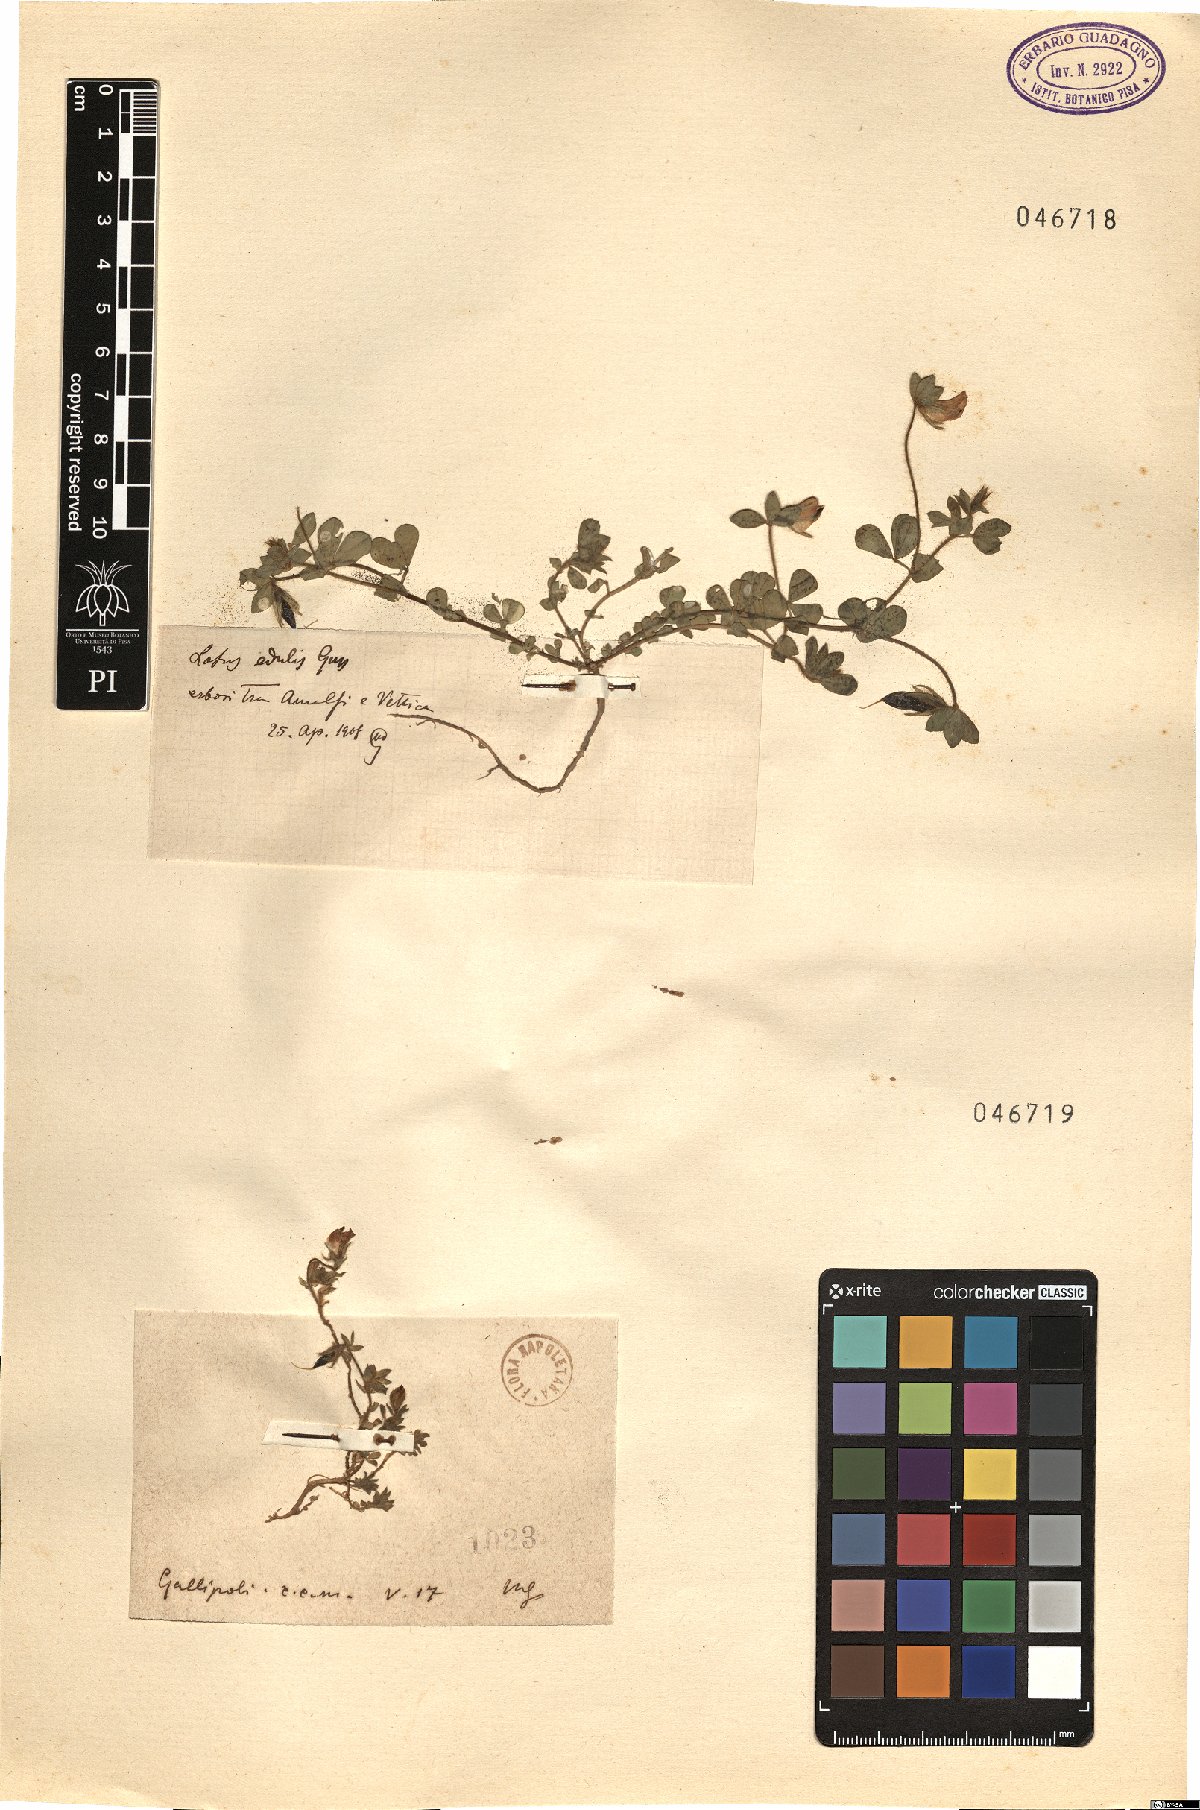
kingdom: Plantae
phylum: Tracheophyta
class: Magnoliopsida
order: Fabales
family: Fabaceae
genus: Lotus
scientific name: Lotus edulis
